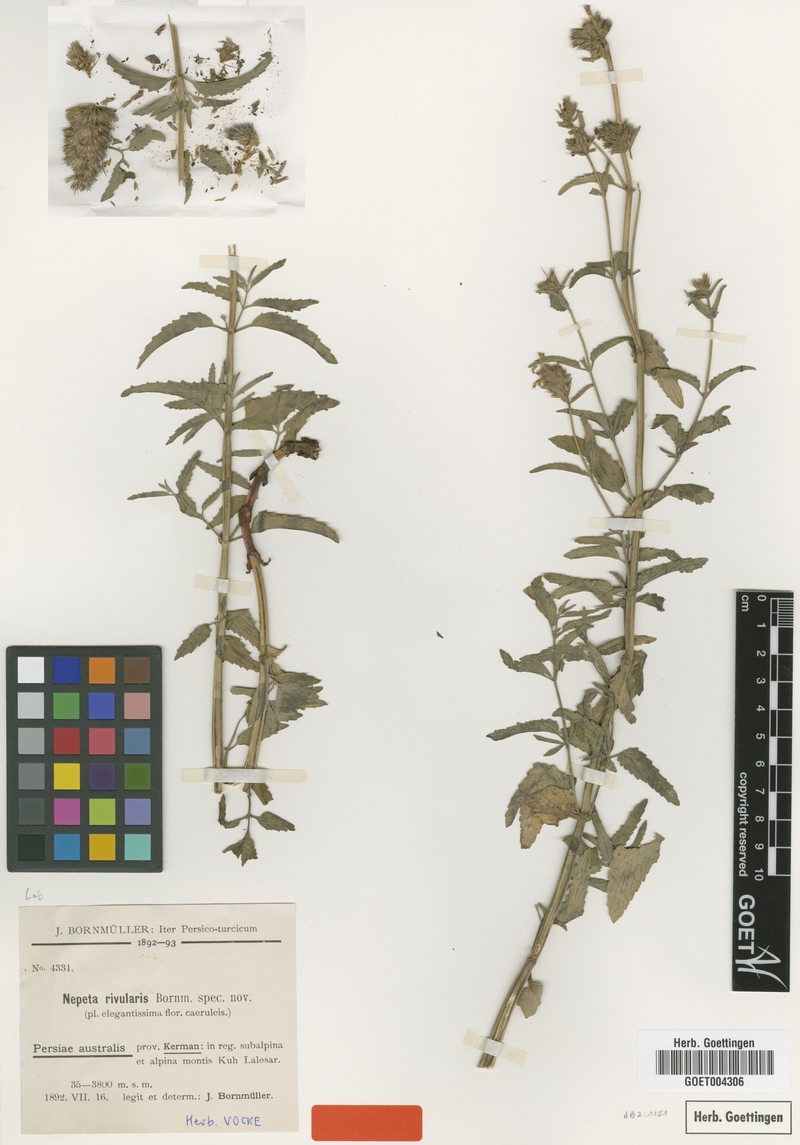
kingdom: Plantae
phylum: Tracheophyta
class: Magnoliopsida
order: Lamiales
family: Lamiaceae
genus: Nepeta
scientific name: Nepeta rivularis
